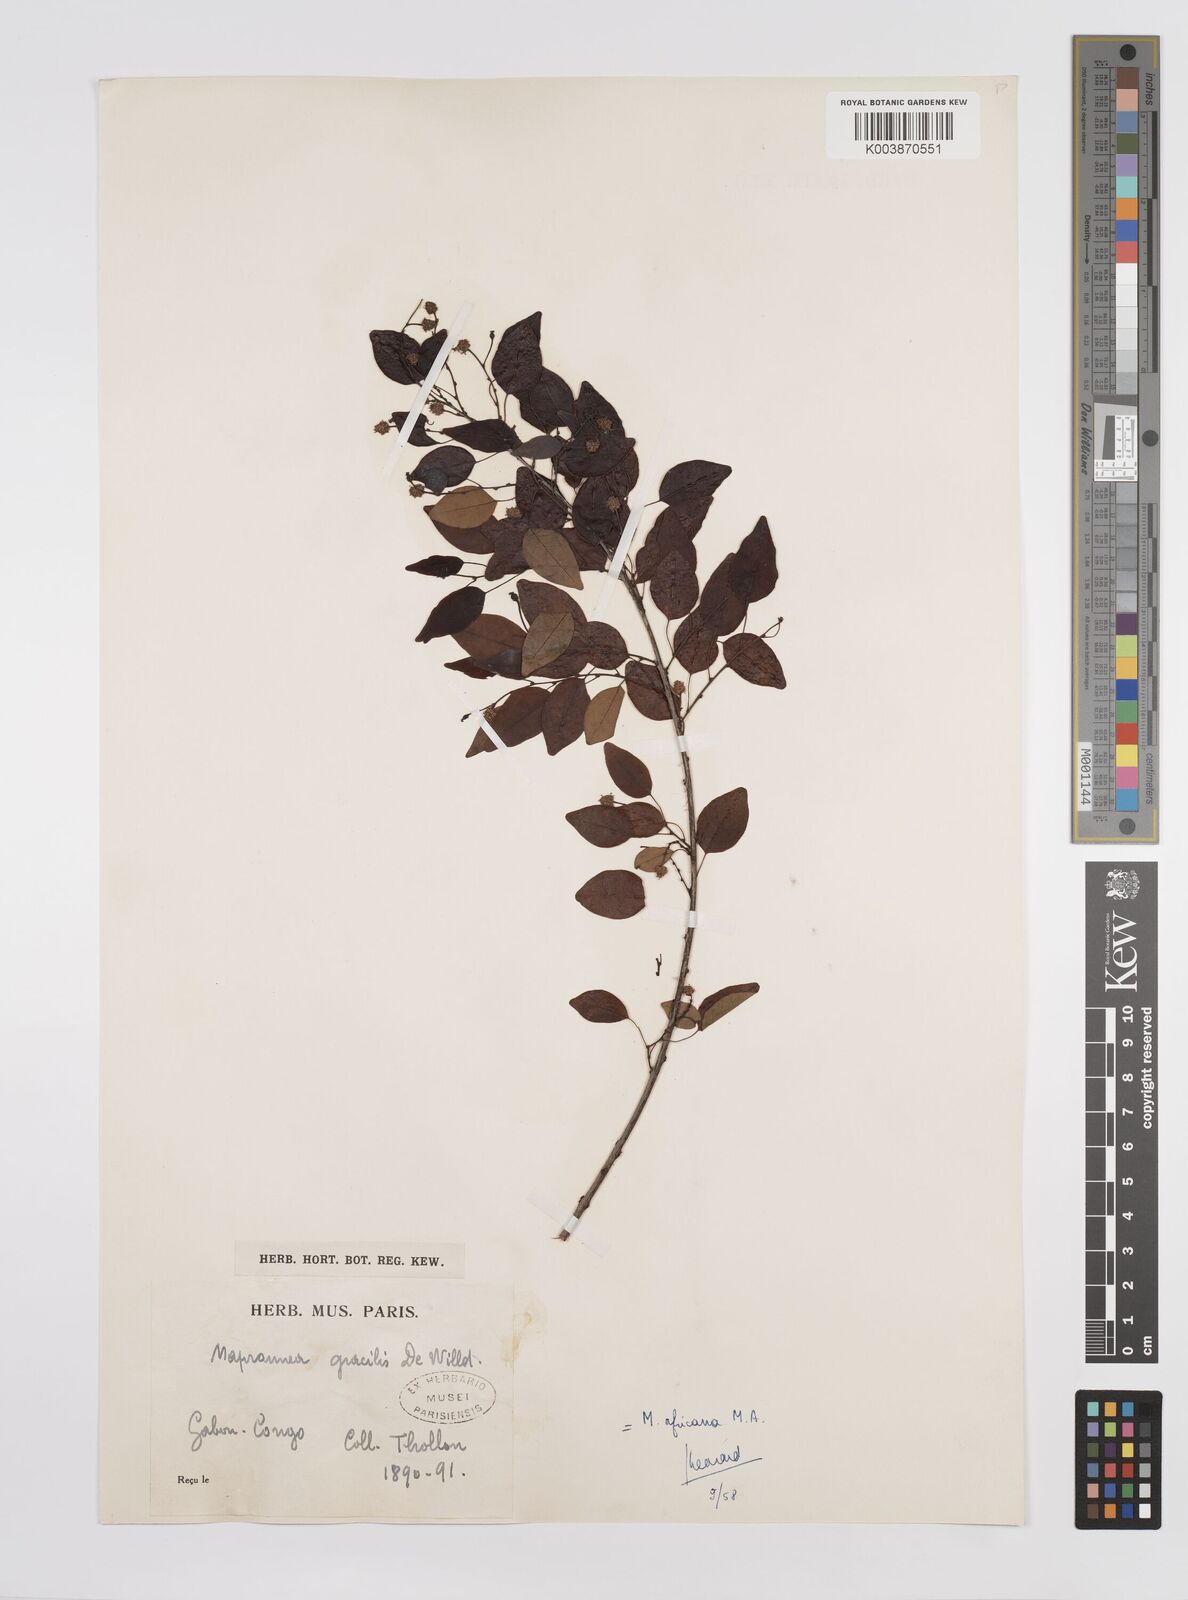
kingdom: Plantae
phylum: Tracheophyta
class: Magnoliopsida
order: Malpighiales
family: Euphorbiaceae
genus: Maprounea
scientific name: Maprounea africana
